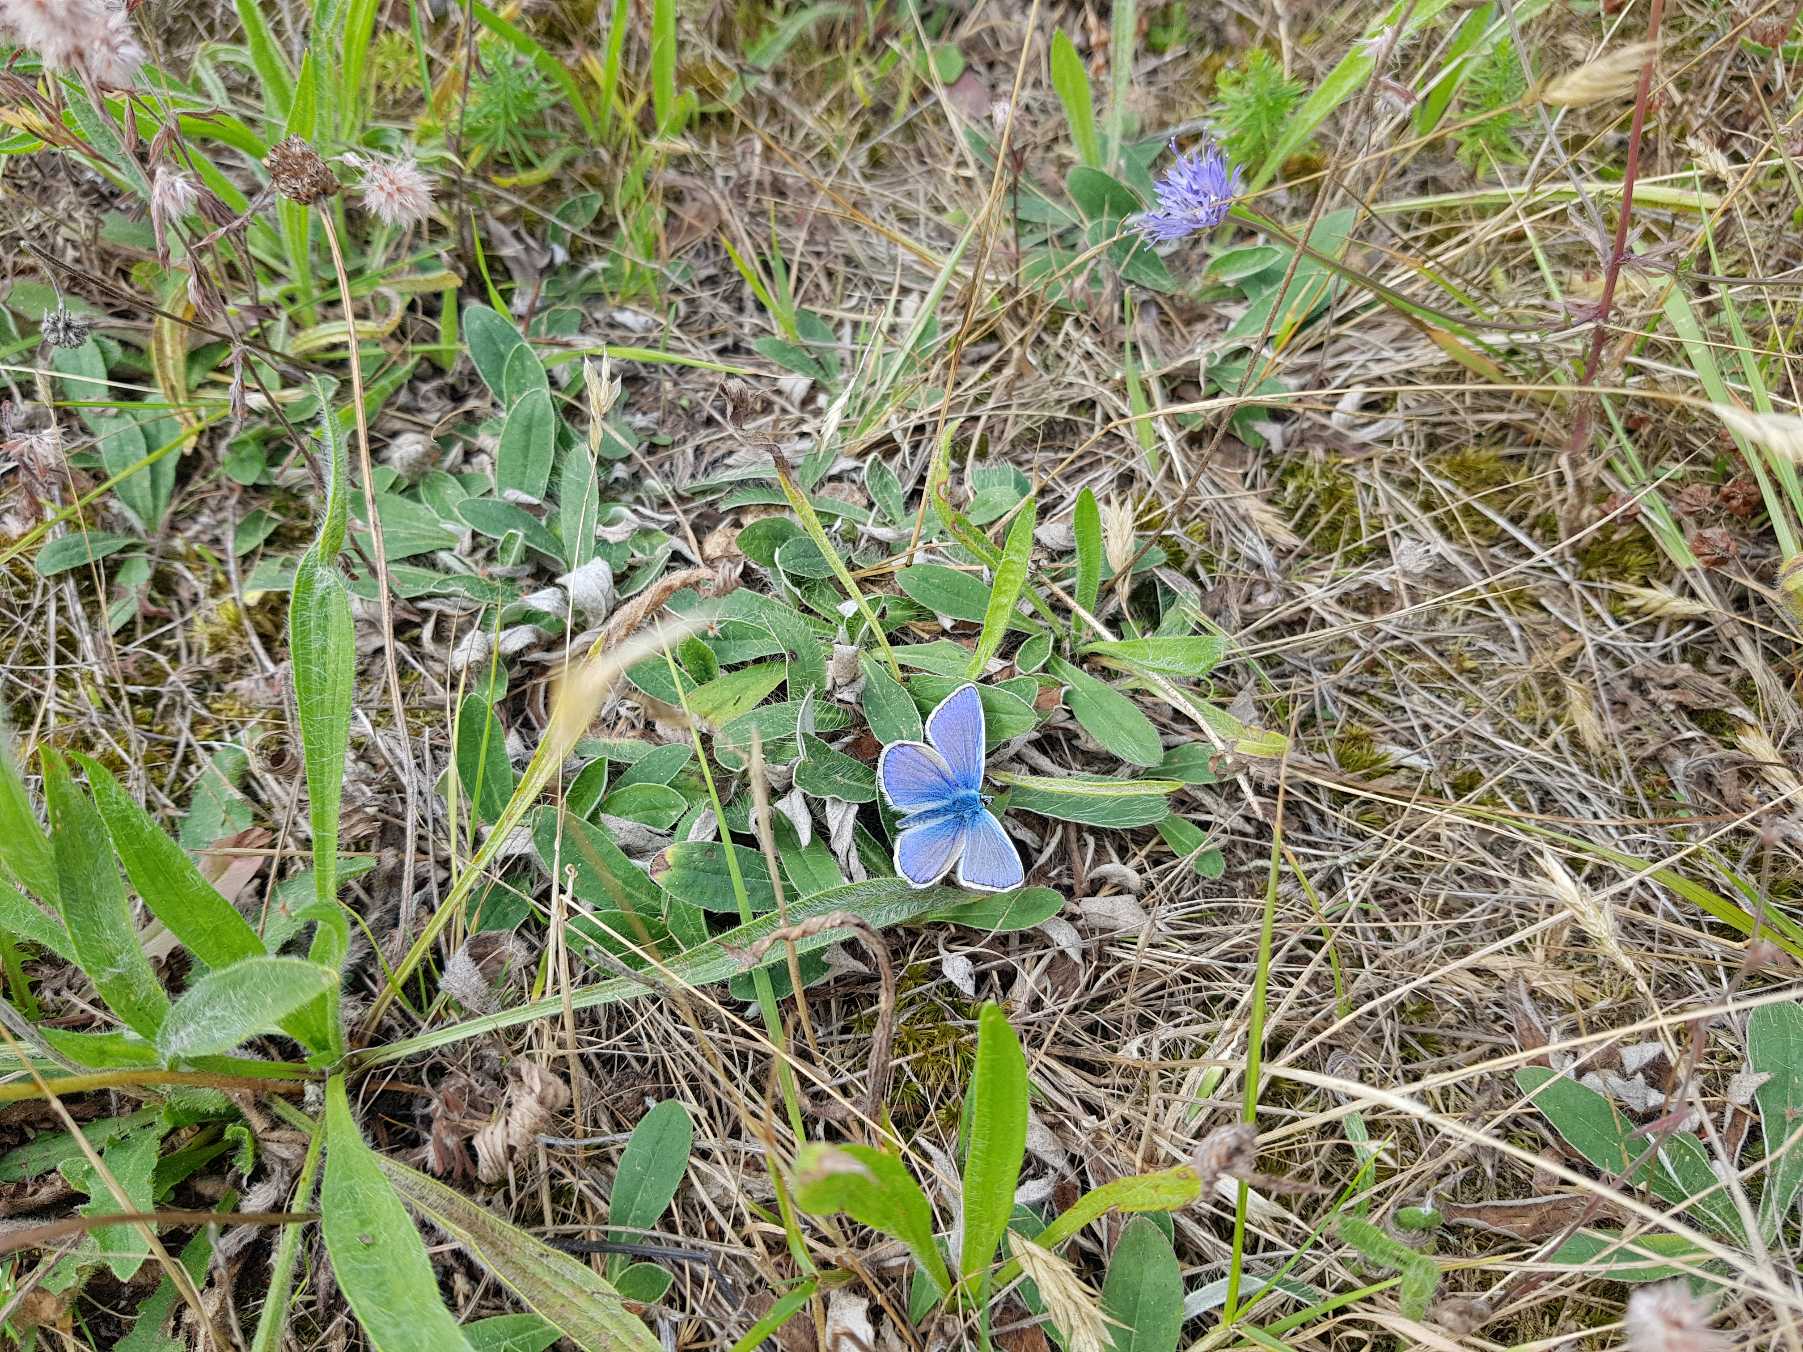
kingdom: Animalia
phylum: Arthropoda
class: Insecta
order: Lepidoptera
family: Lycaenidae
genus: Polyommatus
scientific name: Polyommatus icarus
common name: Almindelig blåfugl
